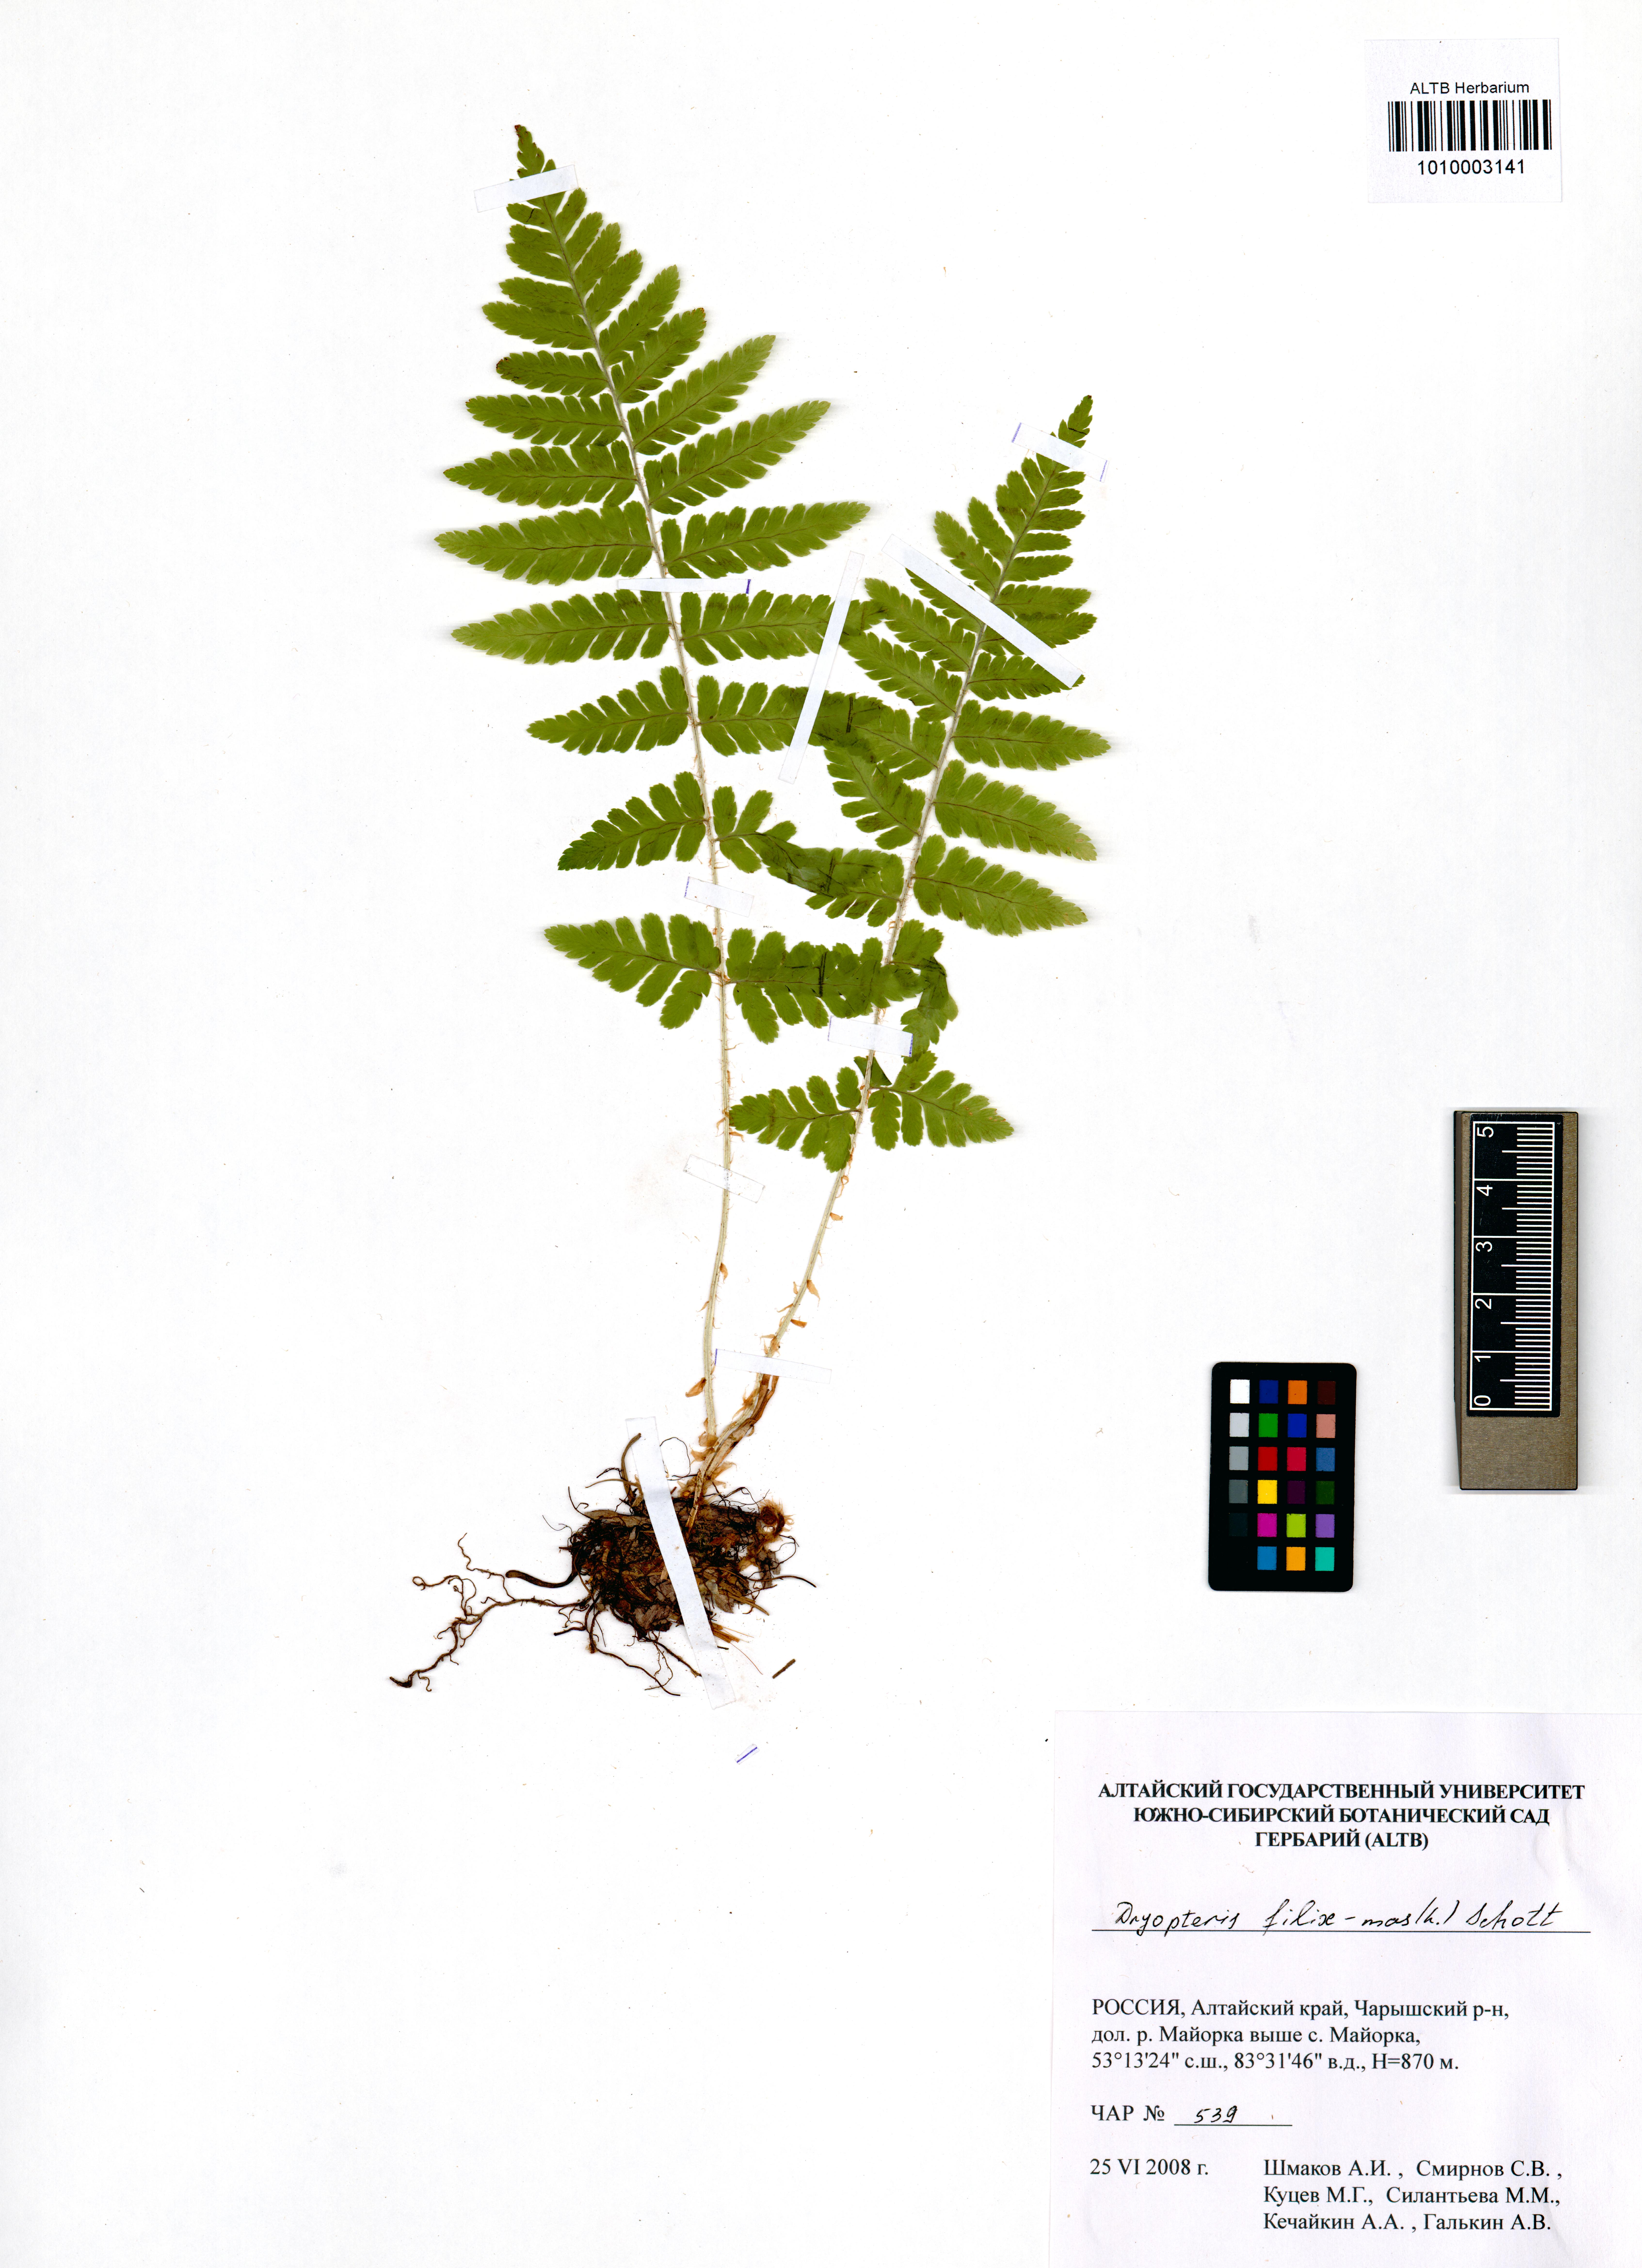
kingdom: Plantae
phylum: Tracheophyta
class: Polypodiopsida
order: Polypodiales
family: Dryopteridaceae
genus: Dryopteris
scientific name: Dryopteris filix-mas
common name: Male fern
